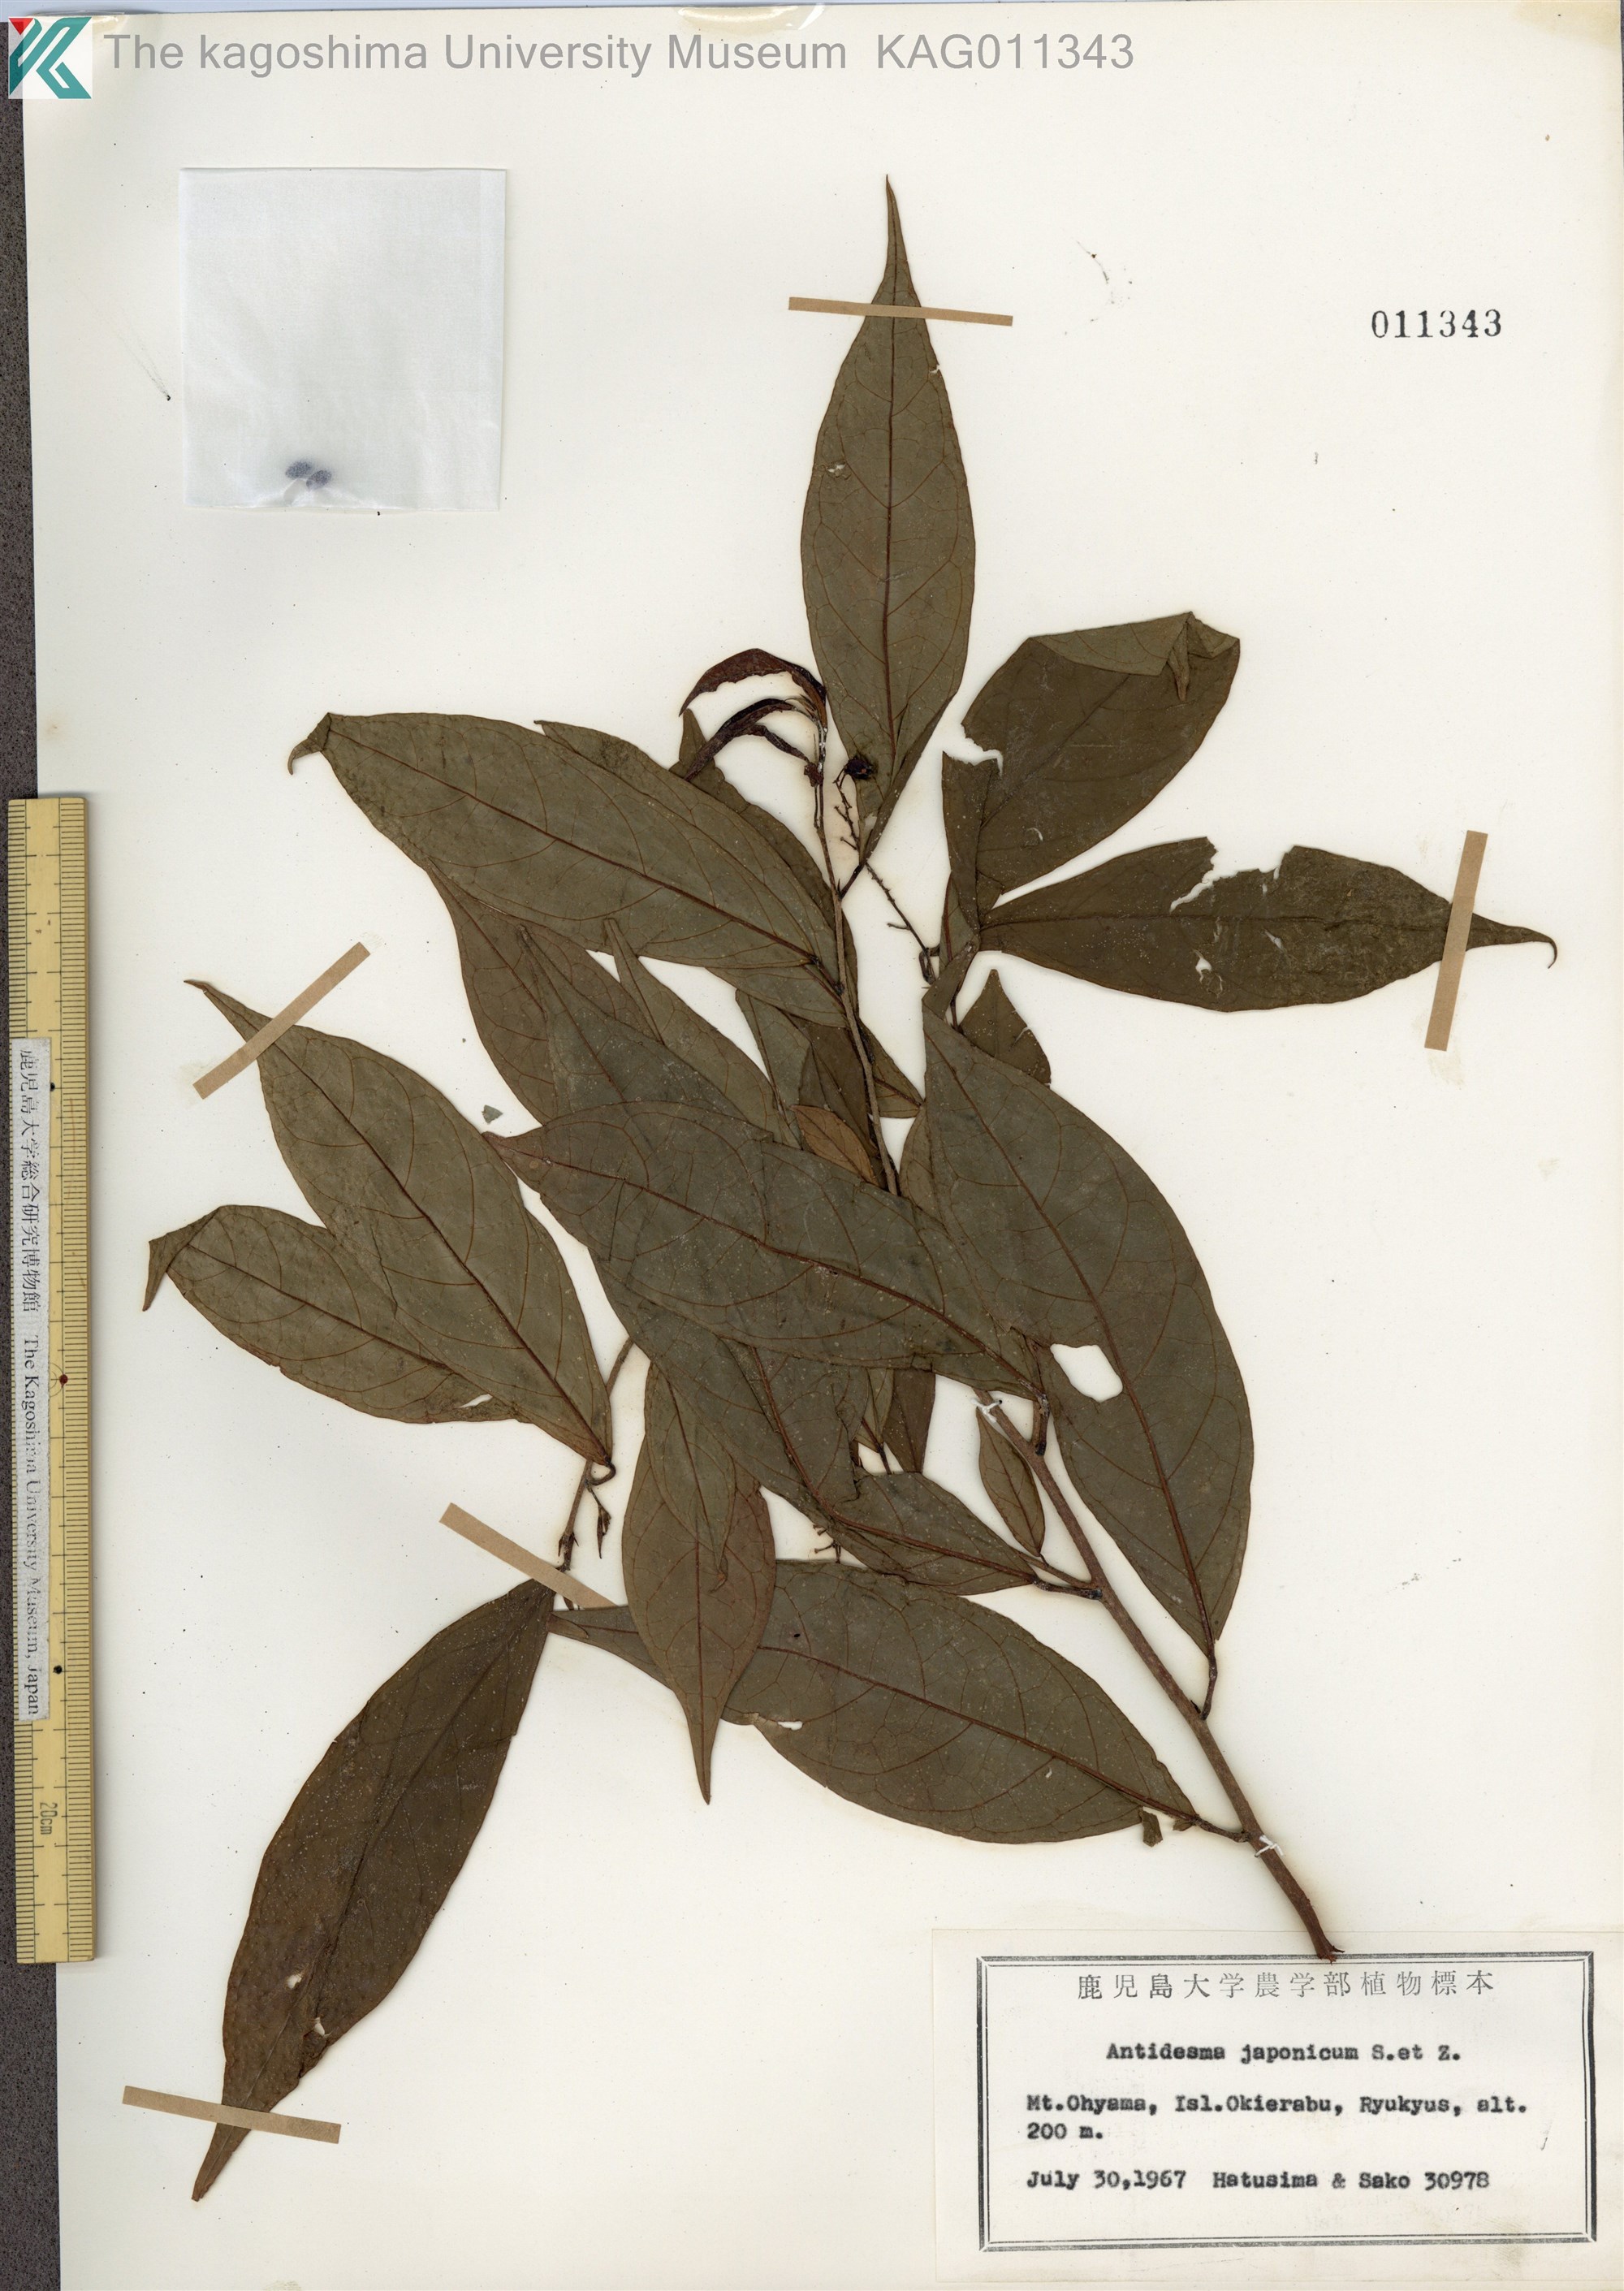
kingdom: Plantae
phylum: Tracheophyta
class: Magnoliopsida
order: Malpighiales
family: Phyllanthaceae
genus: Antidesma
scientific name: Antidesma japonicum
